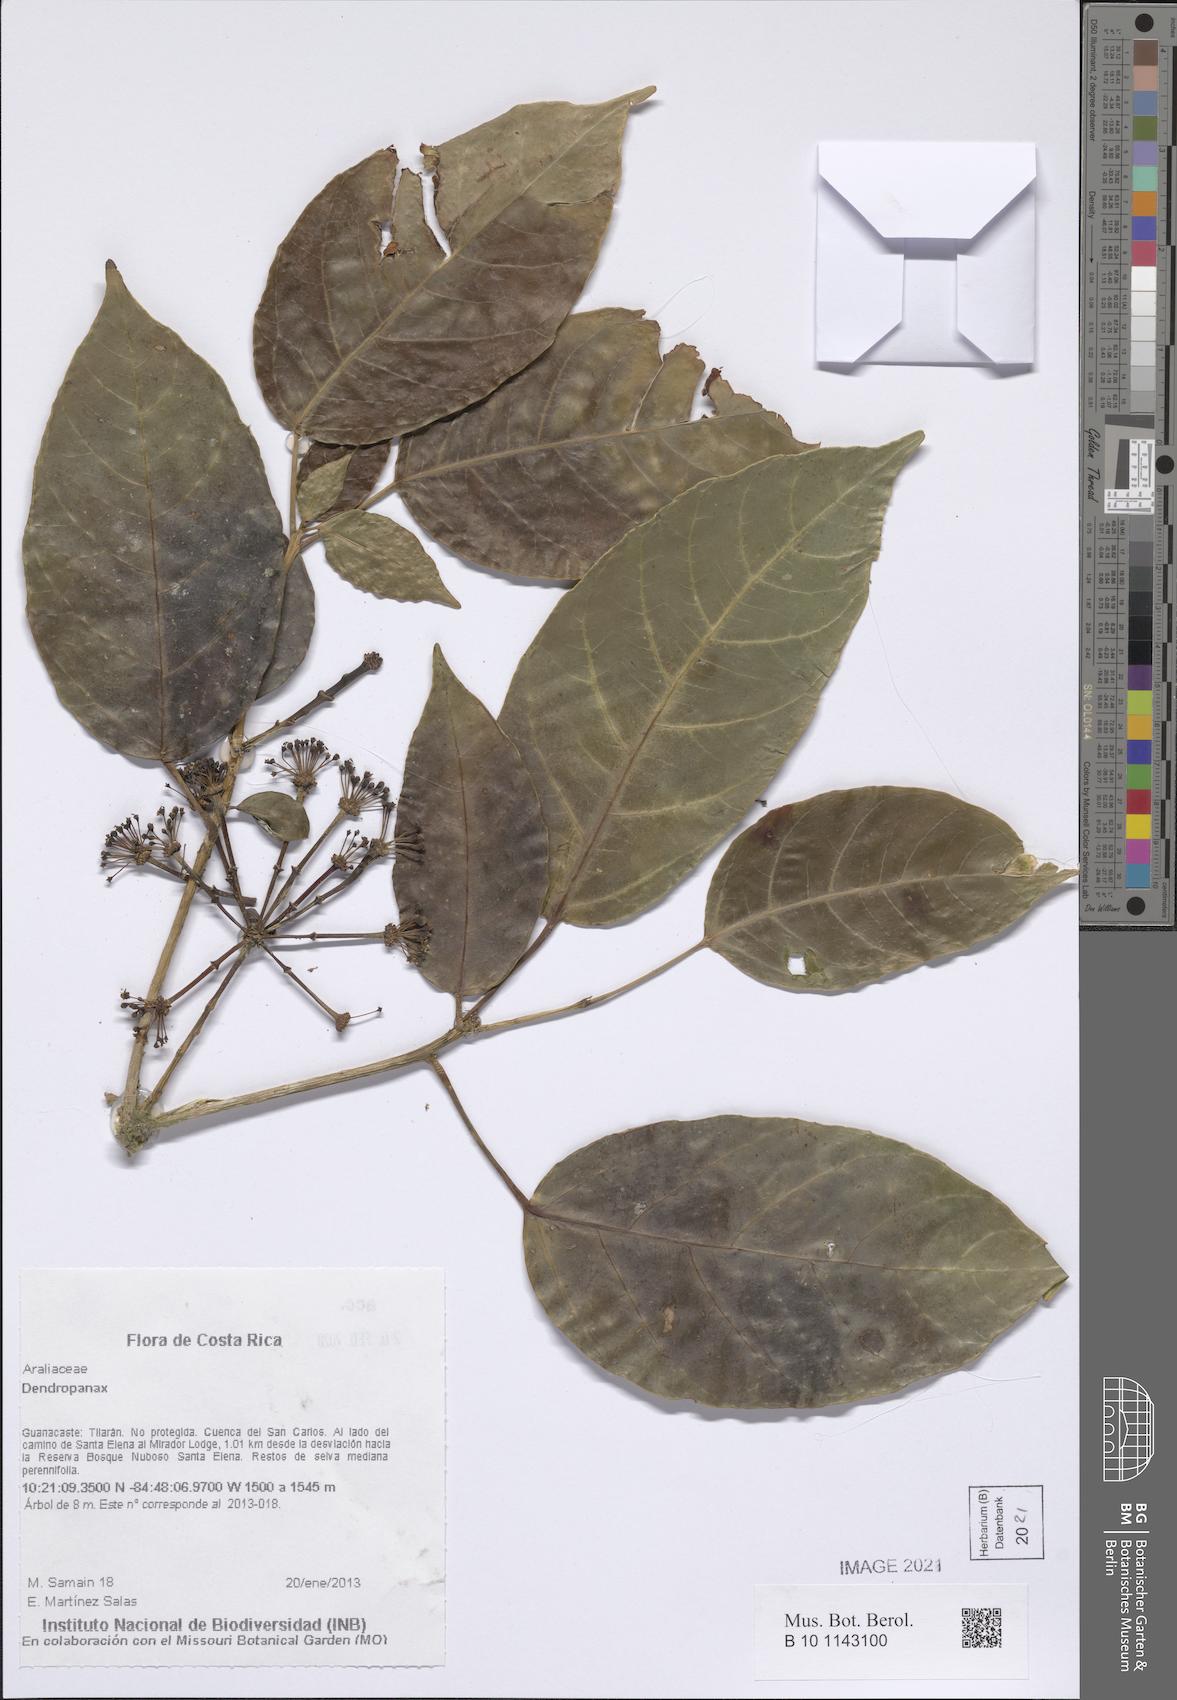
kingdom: Plantae
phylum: Tracheophyta
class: Magnoliopsida
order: Apiales
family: Araliaceae
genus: Dendropanax
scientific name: Dendropanax
